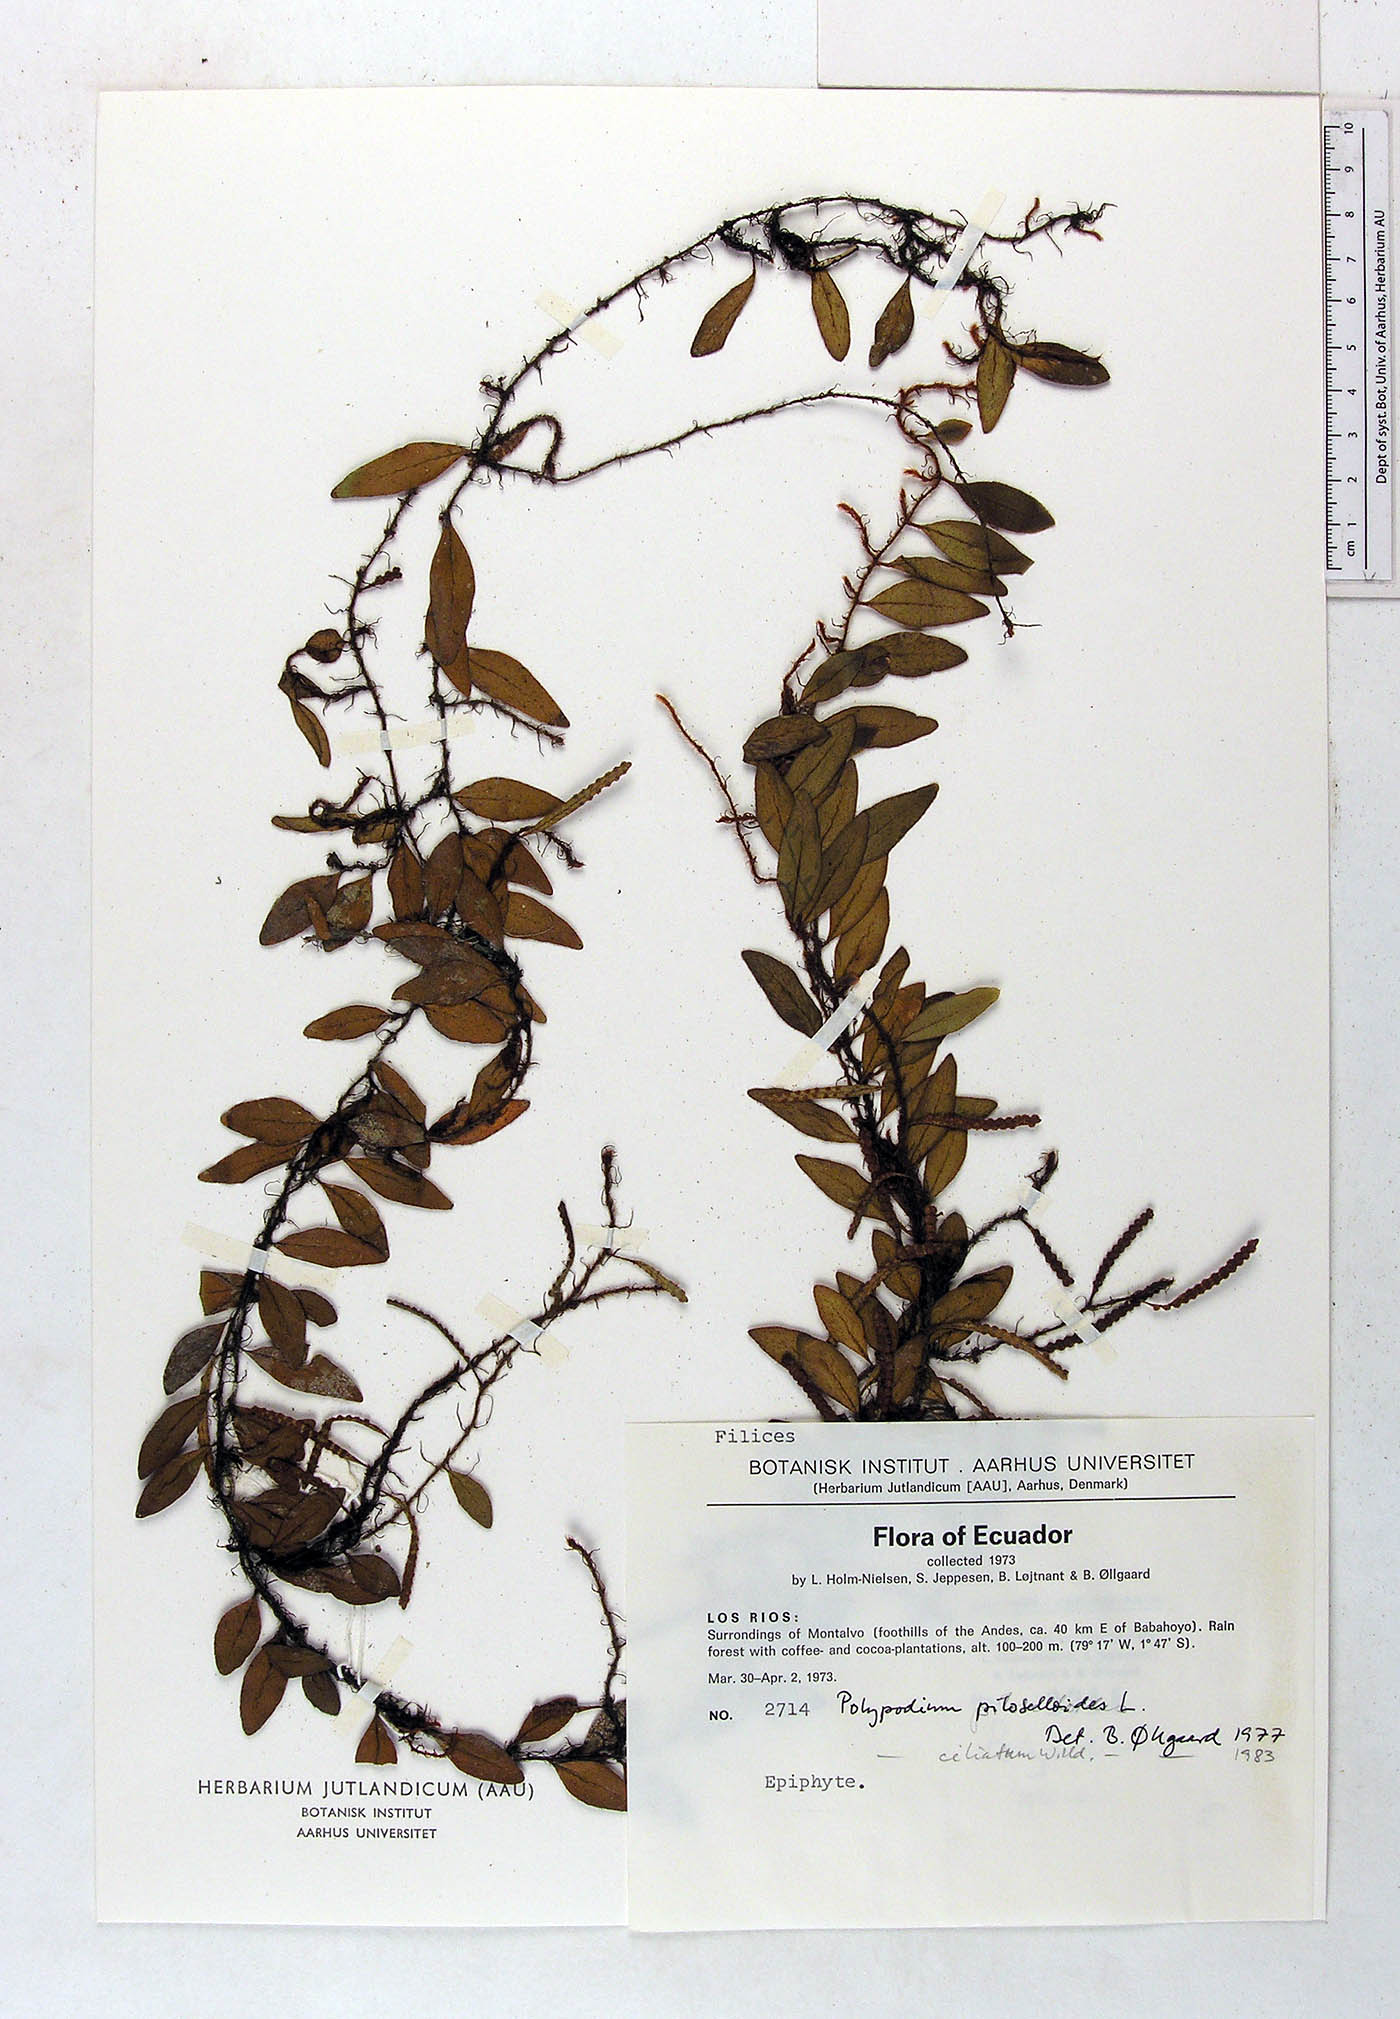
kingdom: Plantae
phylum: Tracheophyta
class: Polypodiopsida
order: Polypodiales
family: Polypodiaceae
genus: Microgramma
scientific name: Microgramma piloselloides
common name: Hairy snakefern
